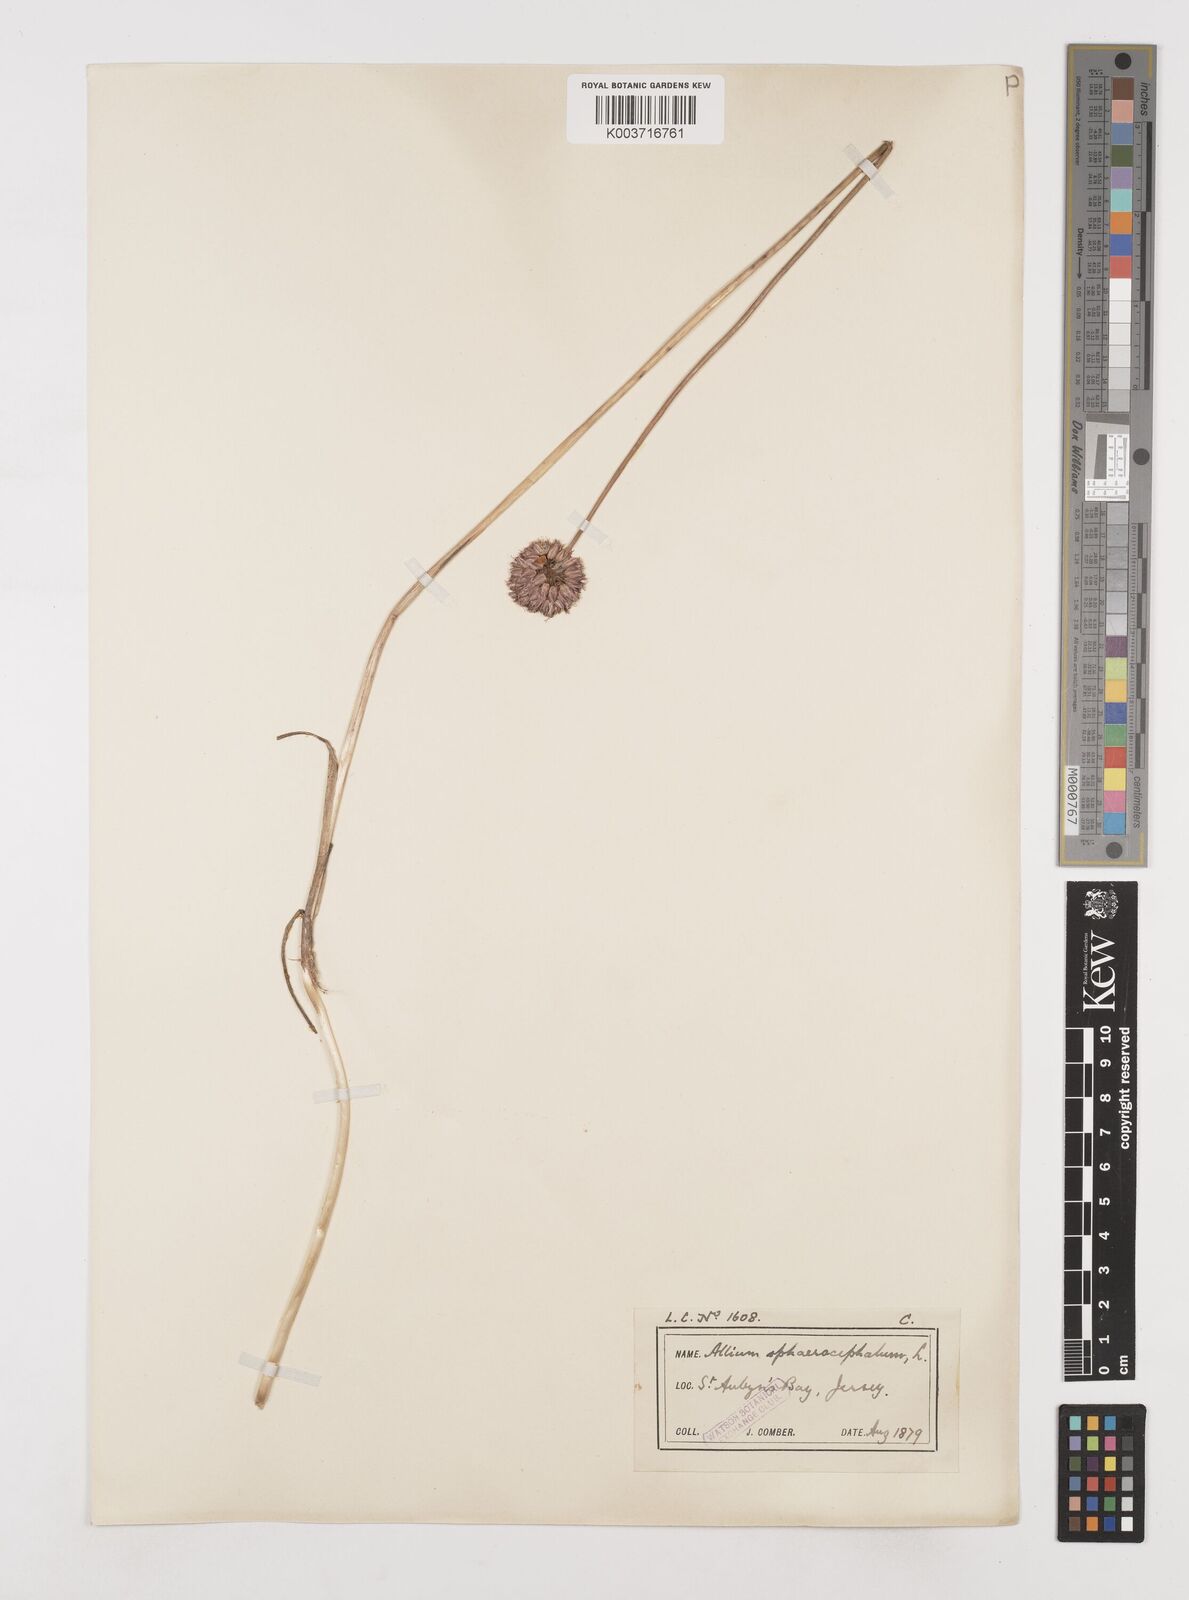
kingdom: Plantae
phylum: Tracheophyta
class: Liliopsida
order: Asparagales
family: Amaryllidaceae
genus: Allium
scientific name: Allium sphaerocephalon
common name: Round-headed leek
